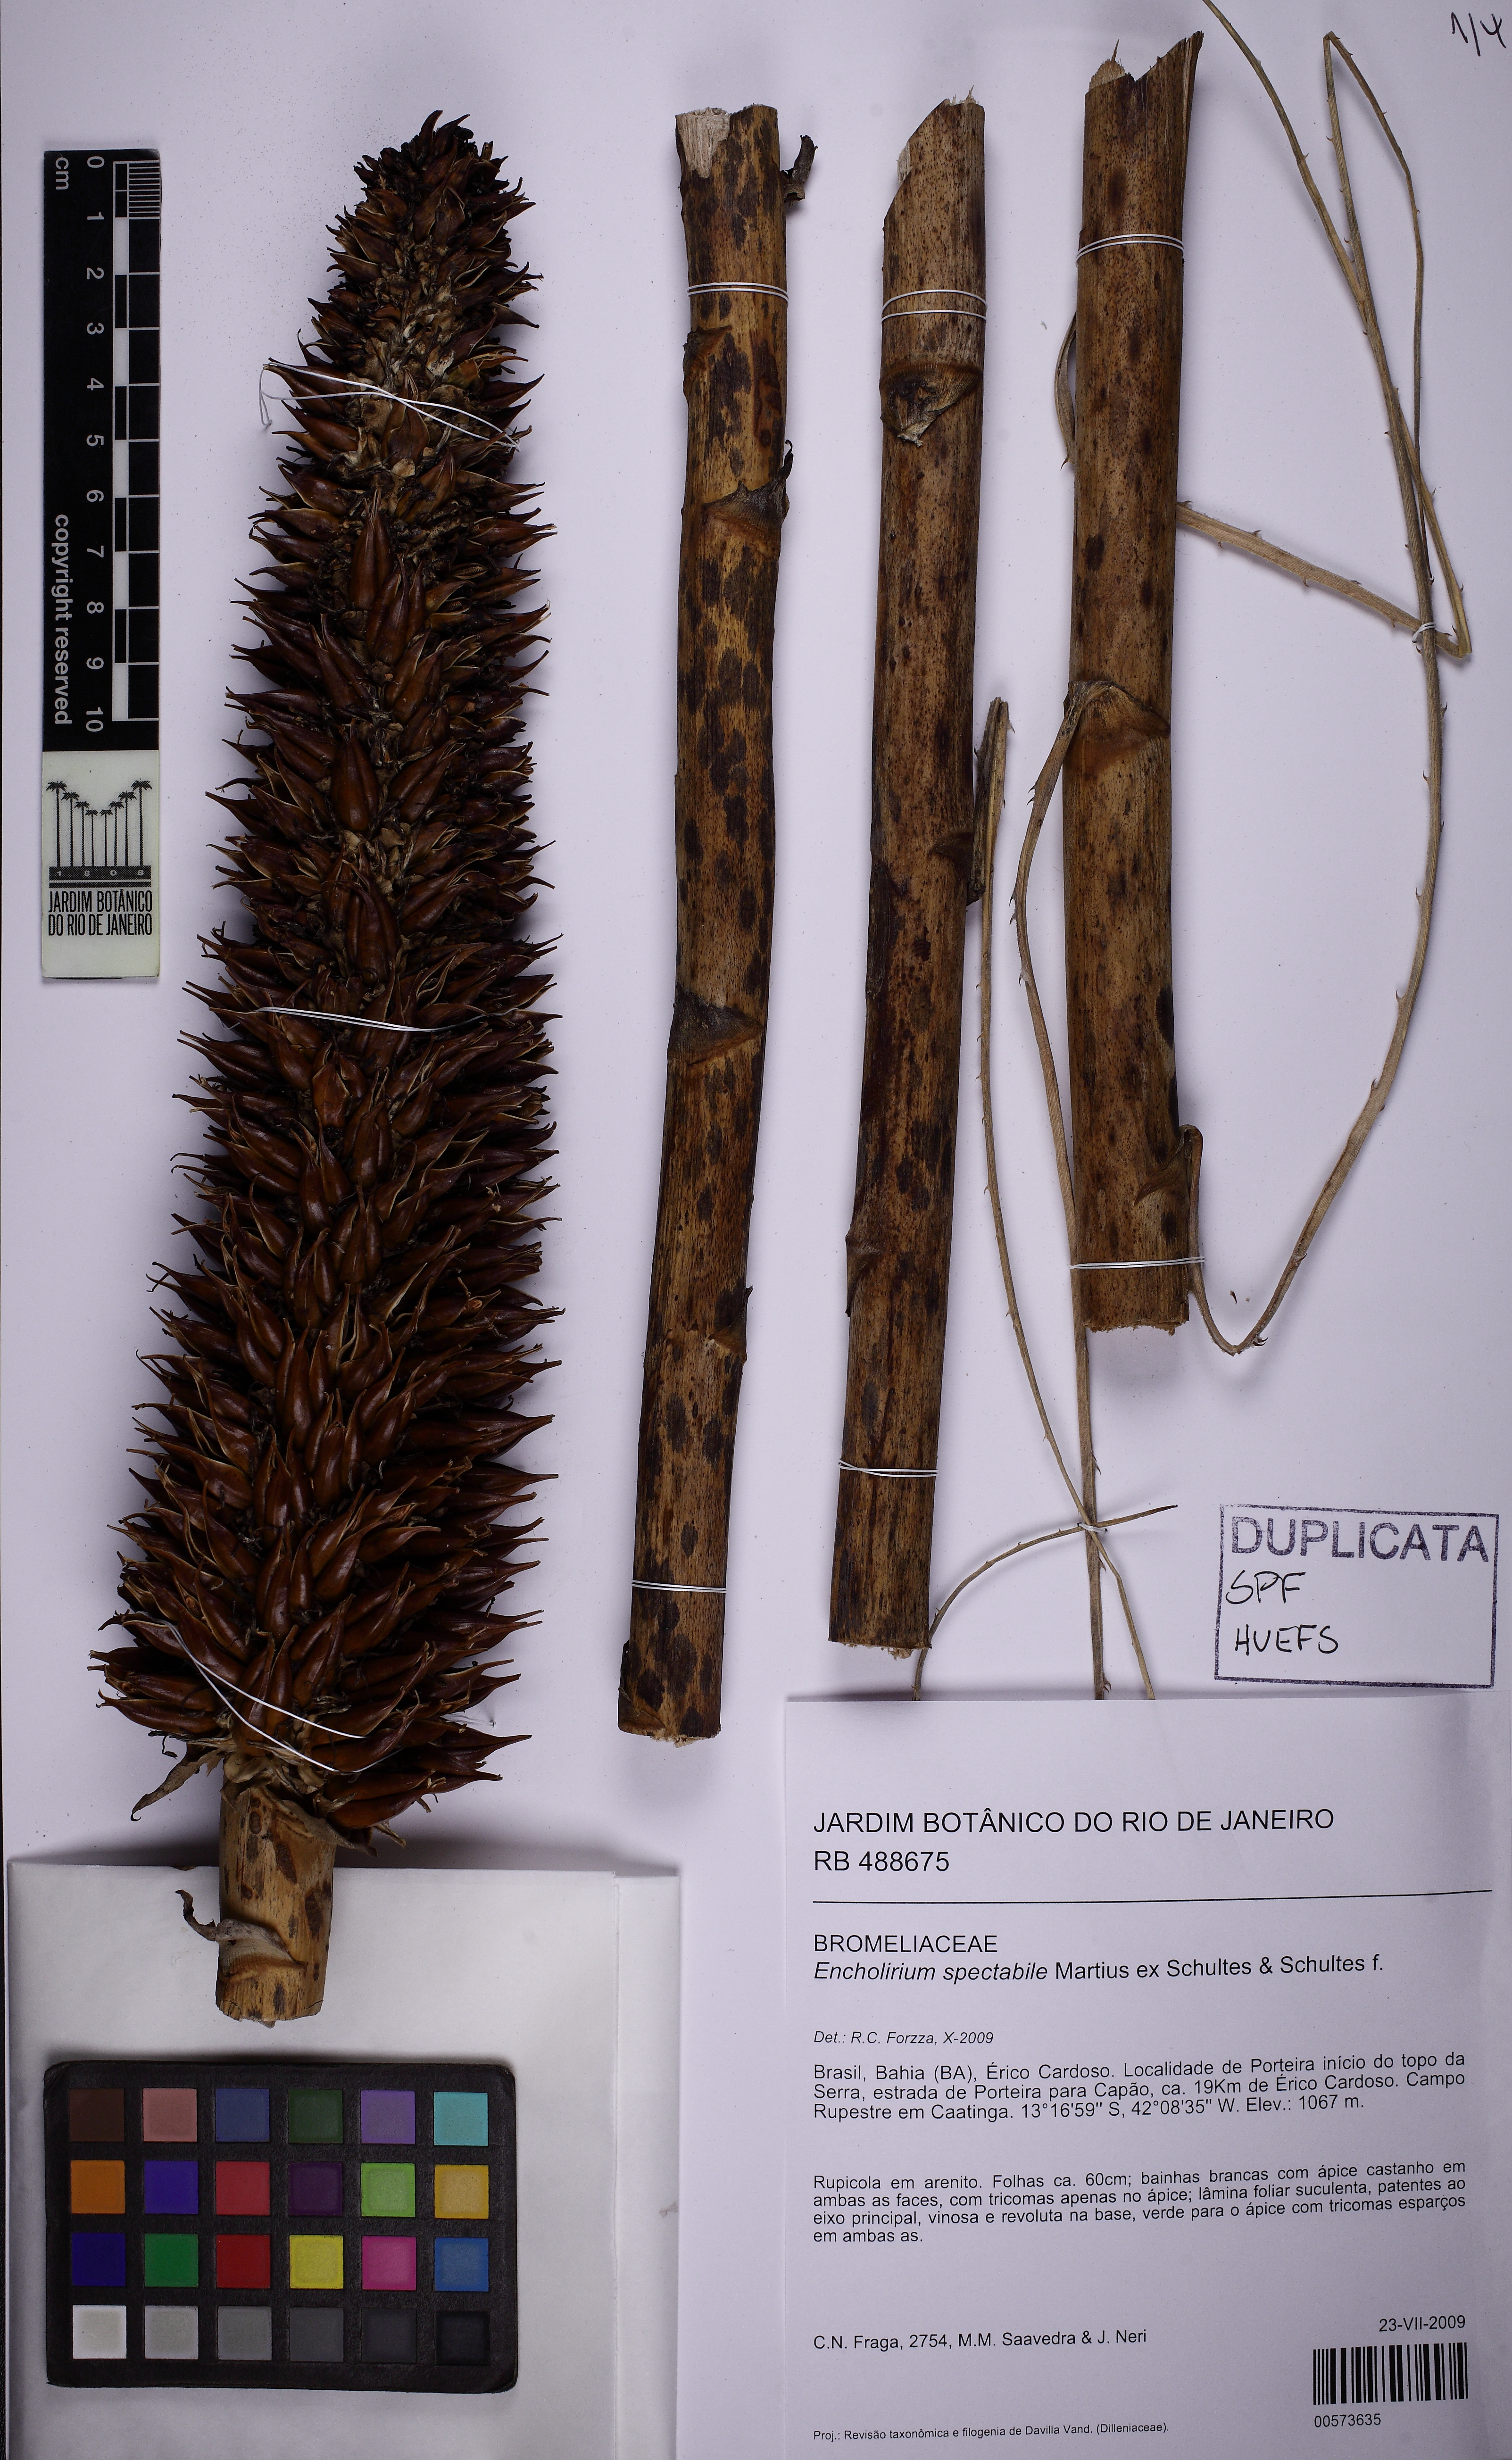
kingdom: Plantae
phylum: Tracheophyta
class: Liliopsida
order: Poales
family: Bromeliaceae
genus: Encholirium
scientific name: Encholirium spectabile
